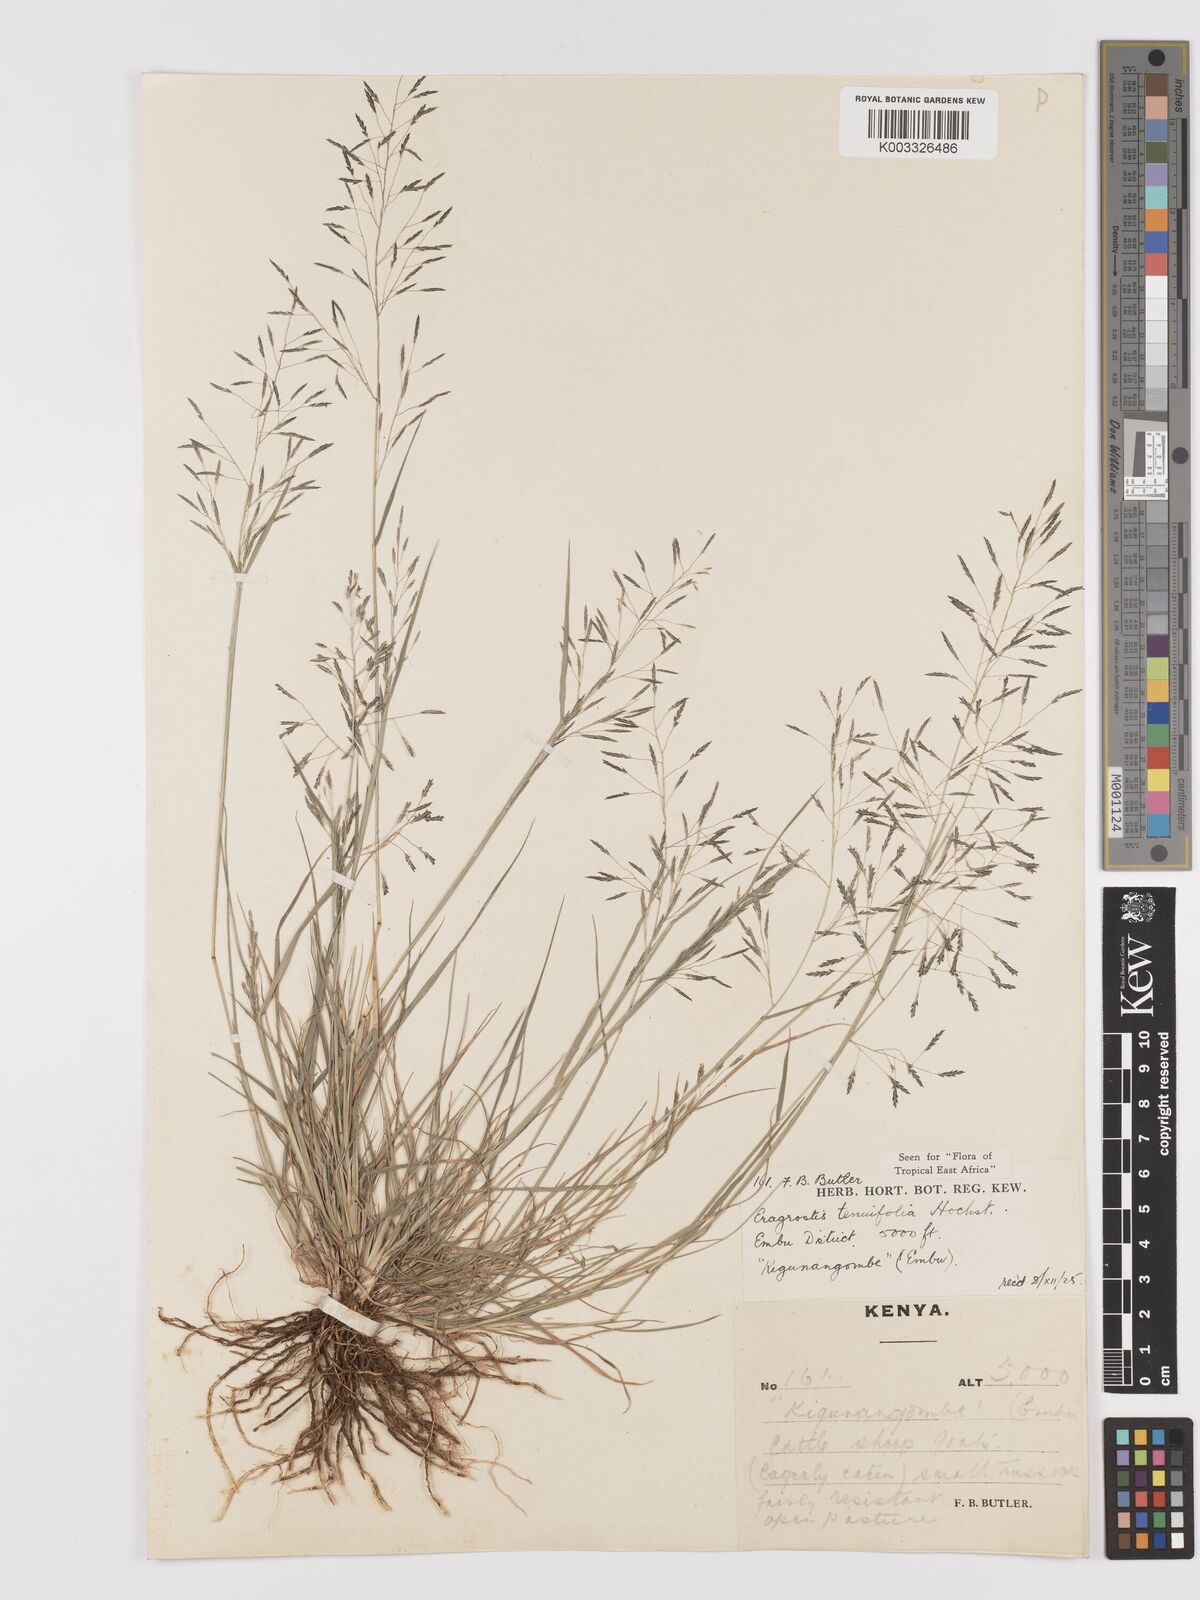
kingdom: Plantae
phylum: Tracheophyta
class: Liliopsida
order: Poales
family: Poaceae
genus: Eragrostis
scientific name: Eragrostis tenuifolia
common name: Elastic grass
